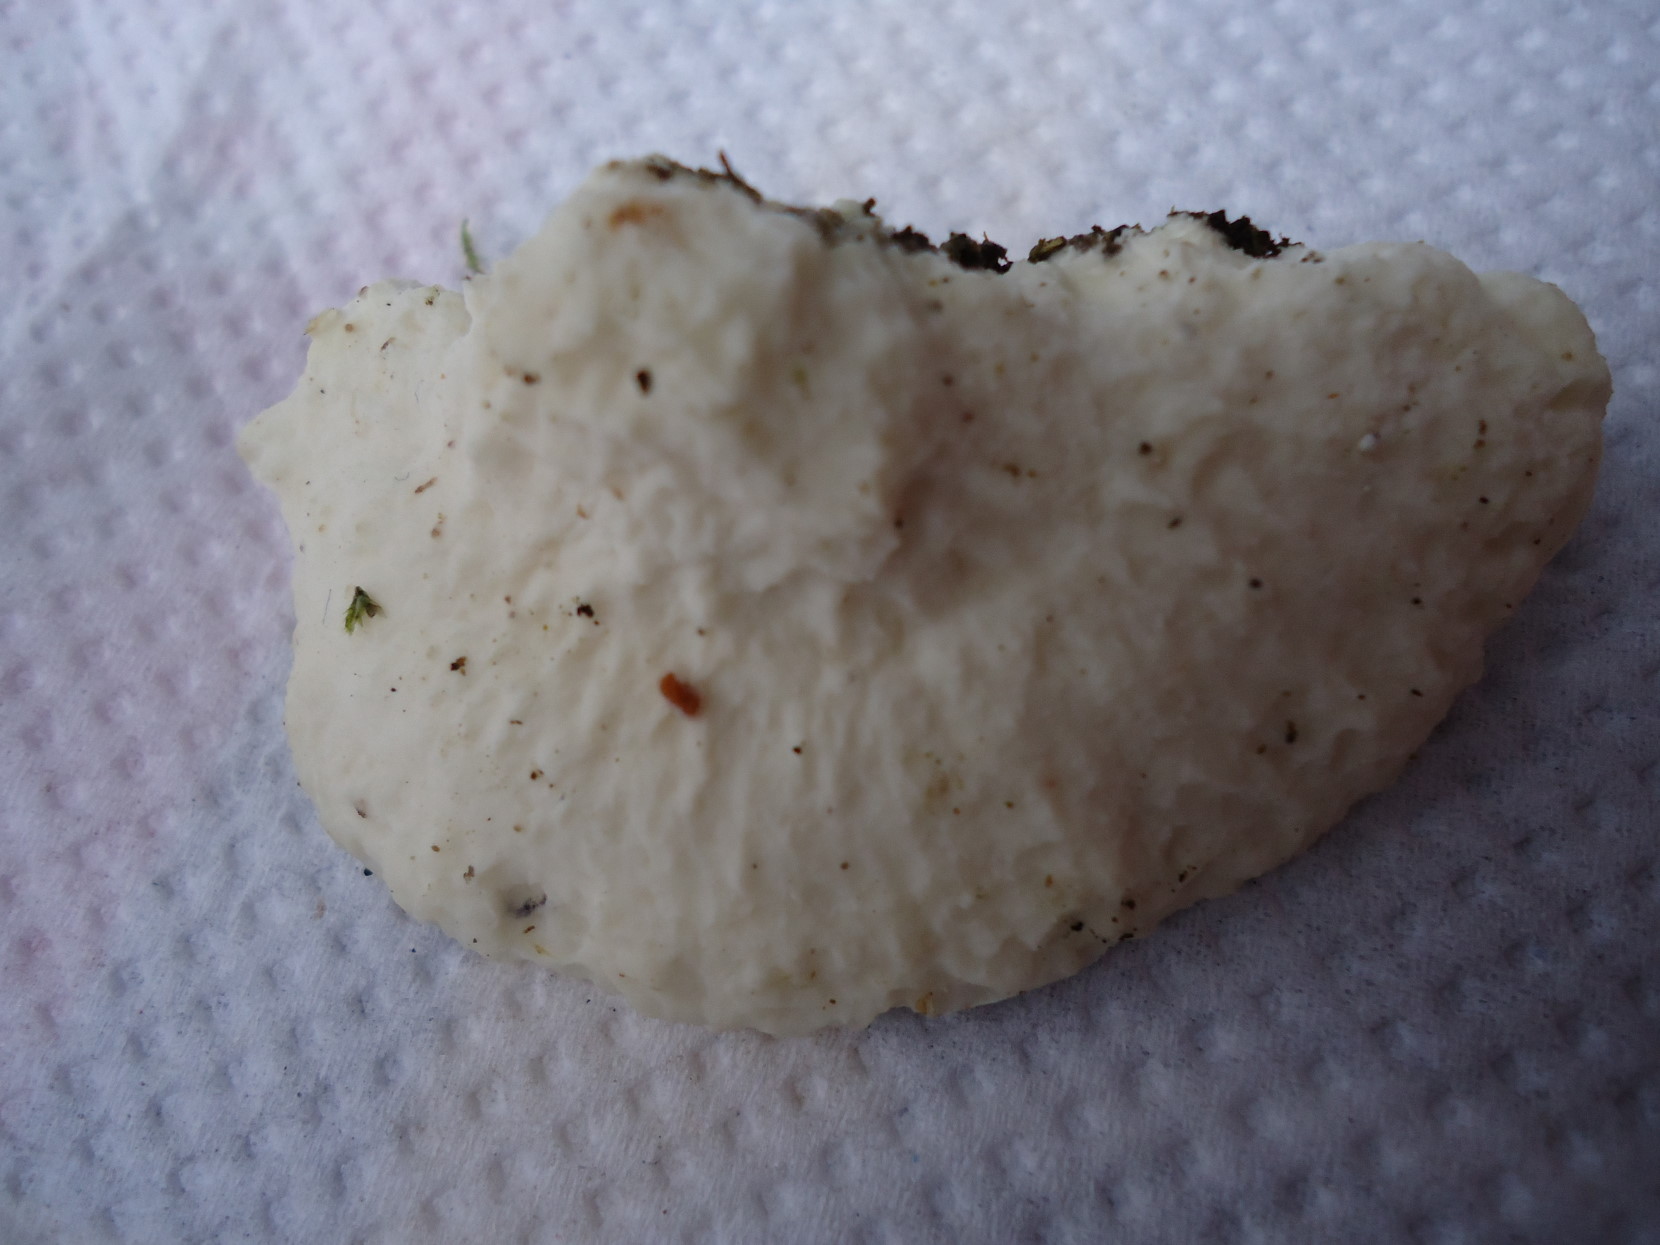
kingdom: Fungi
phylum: Basidiomycota
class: Agaricomycetes
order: Polyporales
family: Incrustoporiaceae
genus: Tyromyces
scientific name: Tyromyces lacteus
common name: mælkehvid kødporesvamp
